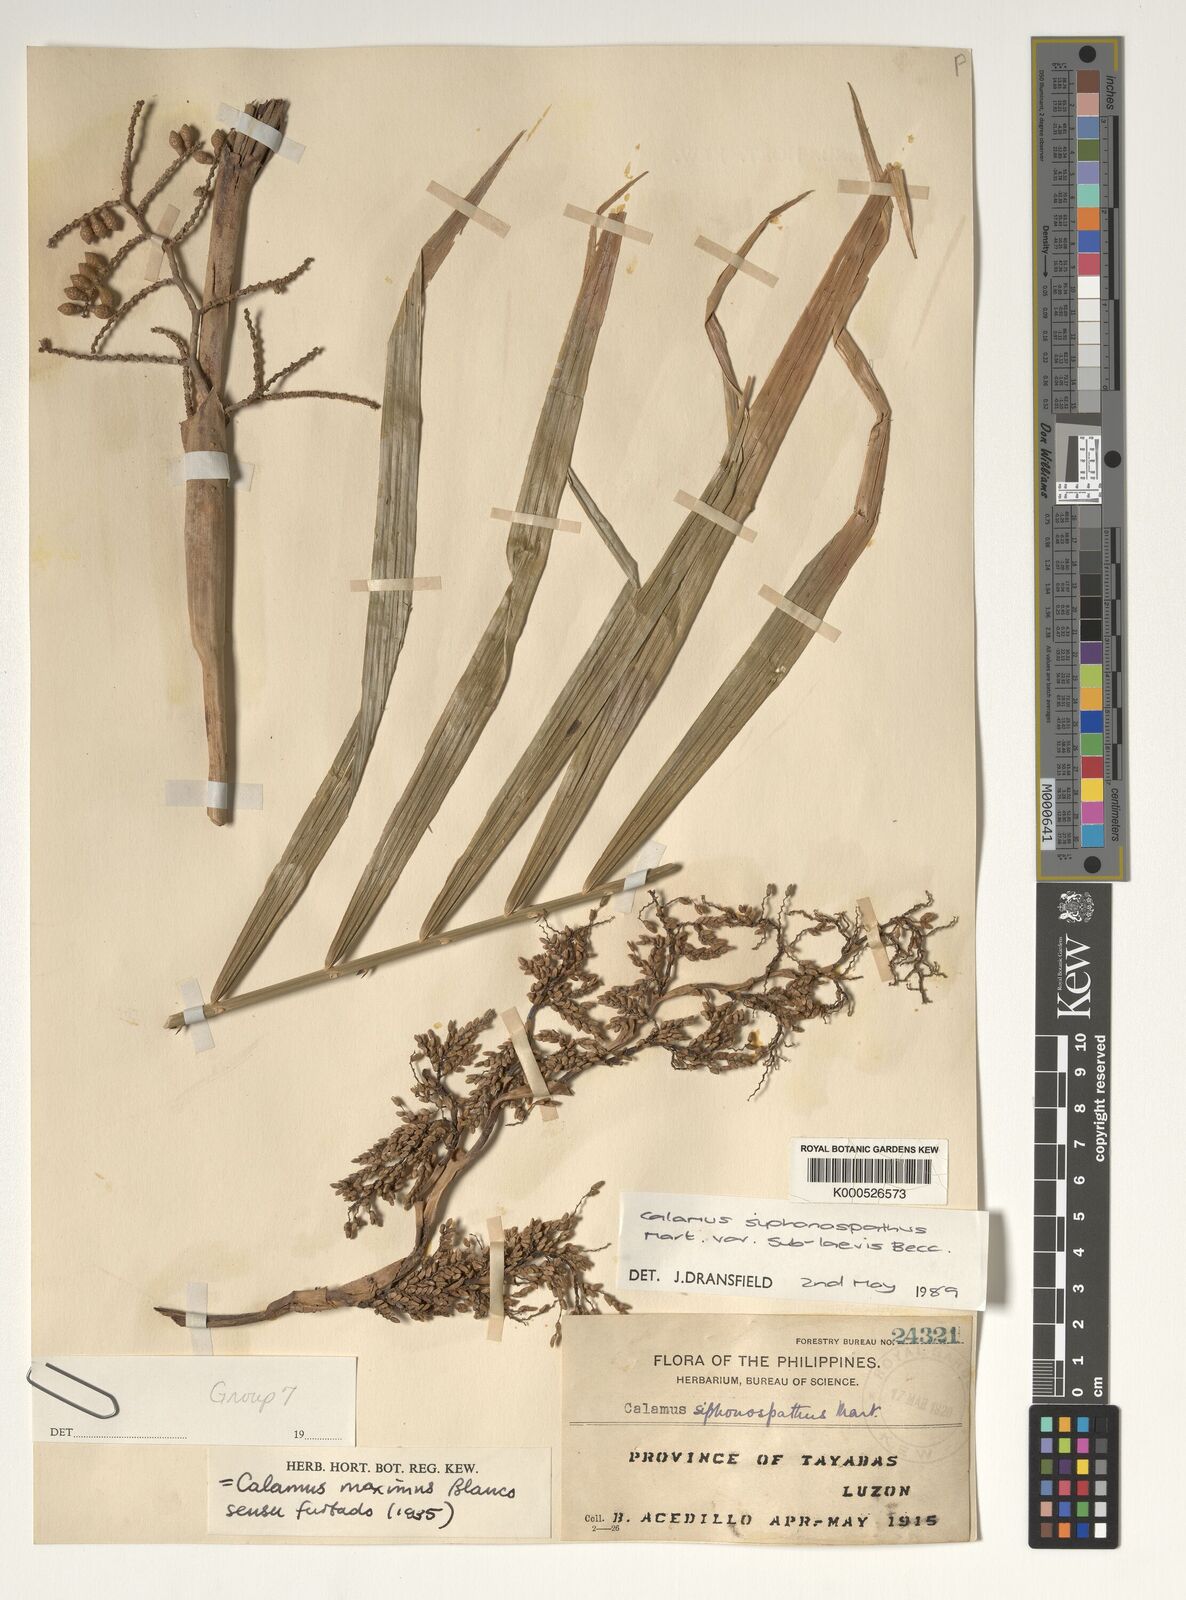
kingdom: Plantae
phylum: Tracheophyta
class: Liliopsida
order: Arecales
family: Arecaceae
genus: Calamus
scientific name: Calamus siphonospathus
